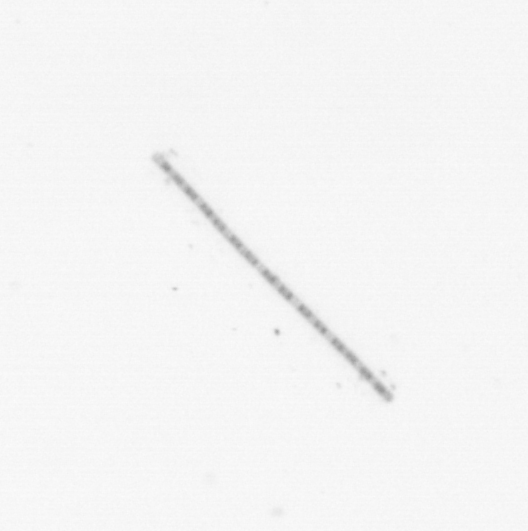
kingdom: Chromista
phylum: Ochrophyta
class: Bacillariophyceae
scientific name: Bacillariophyceae
